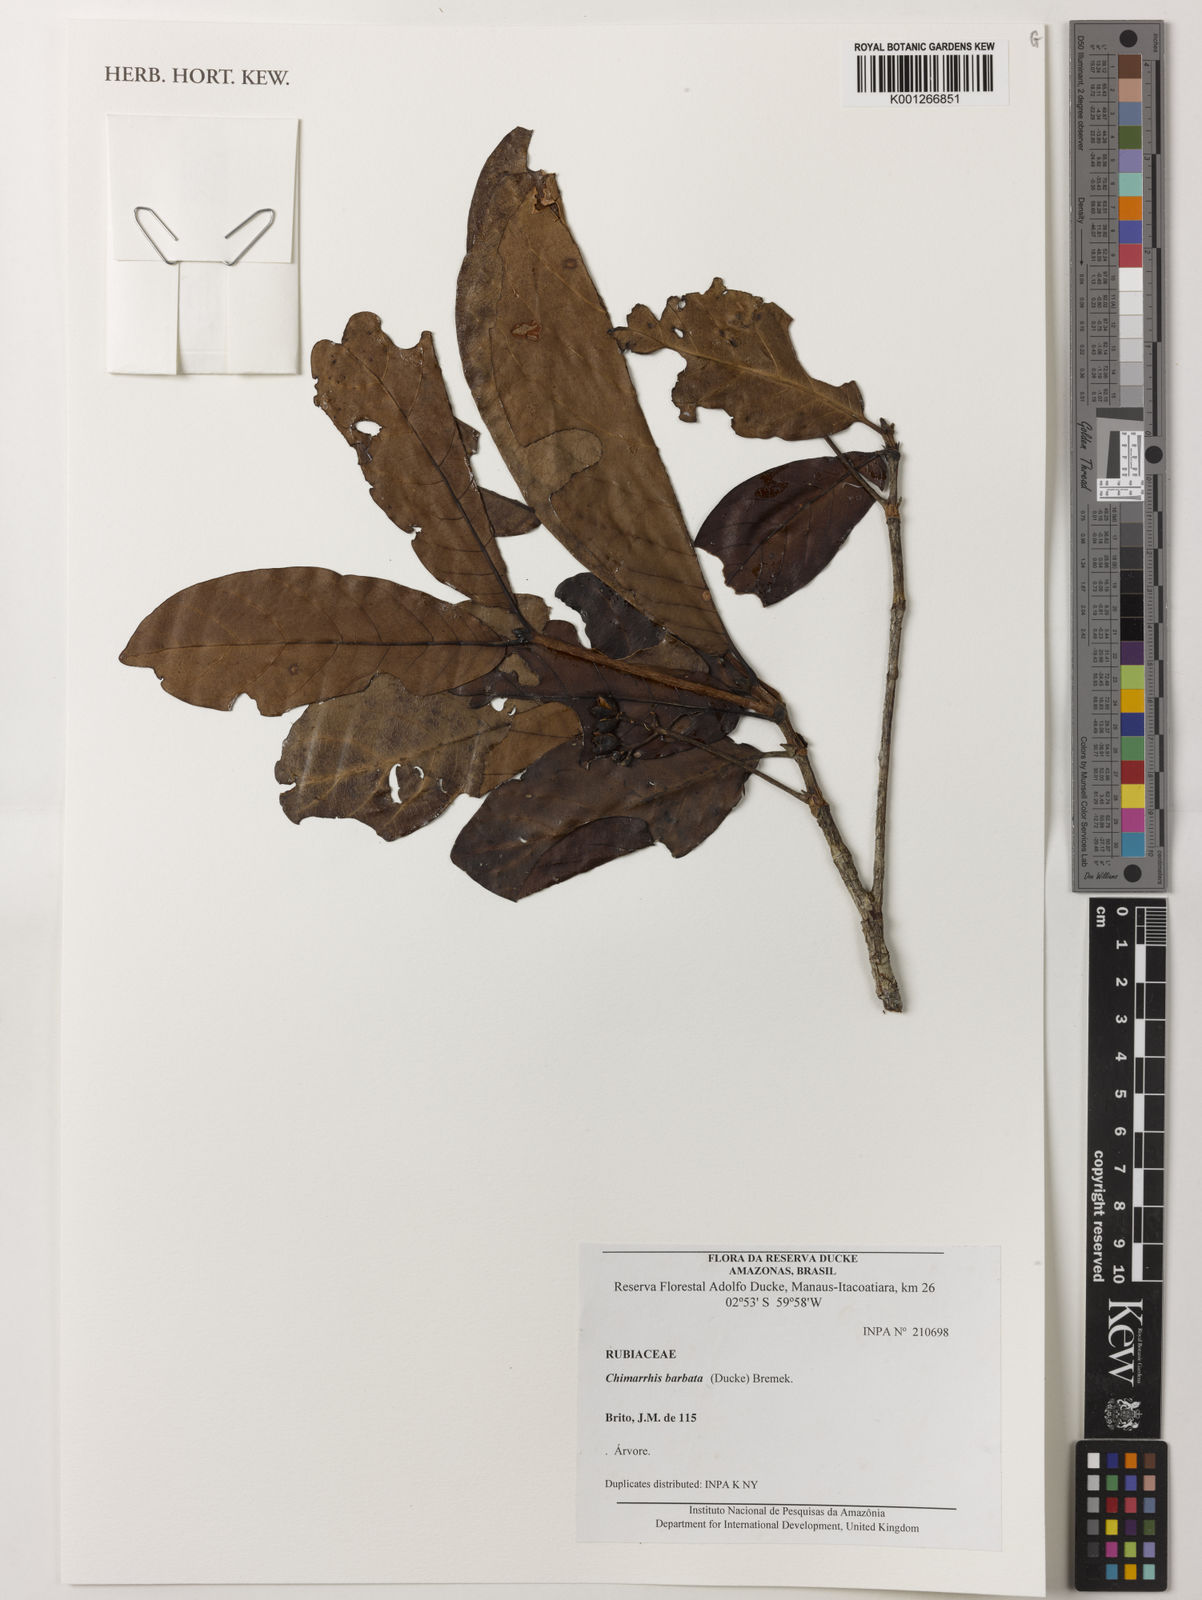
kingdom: Plantae
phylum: Tracheophyta
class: Magnoliopsida
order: Gentianales
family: Rubiaceae
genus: Chimarrhis
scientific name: Chimarrhis barbata
